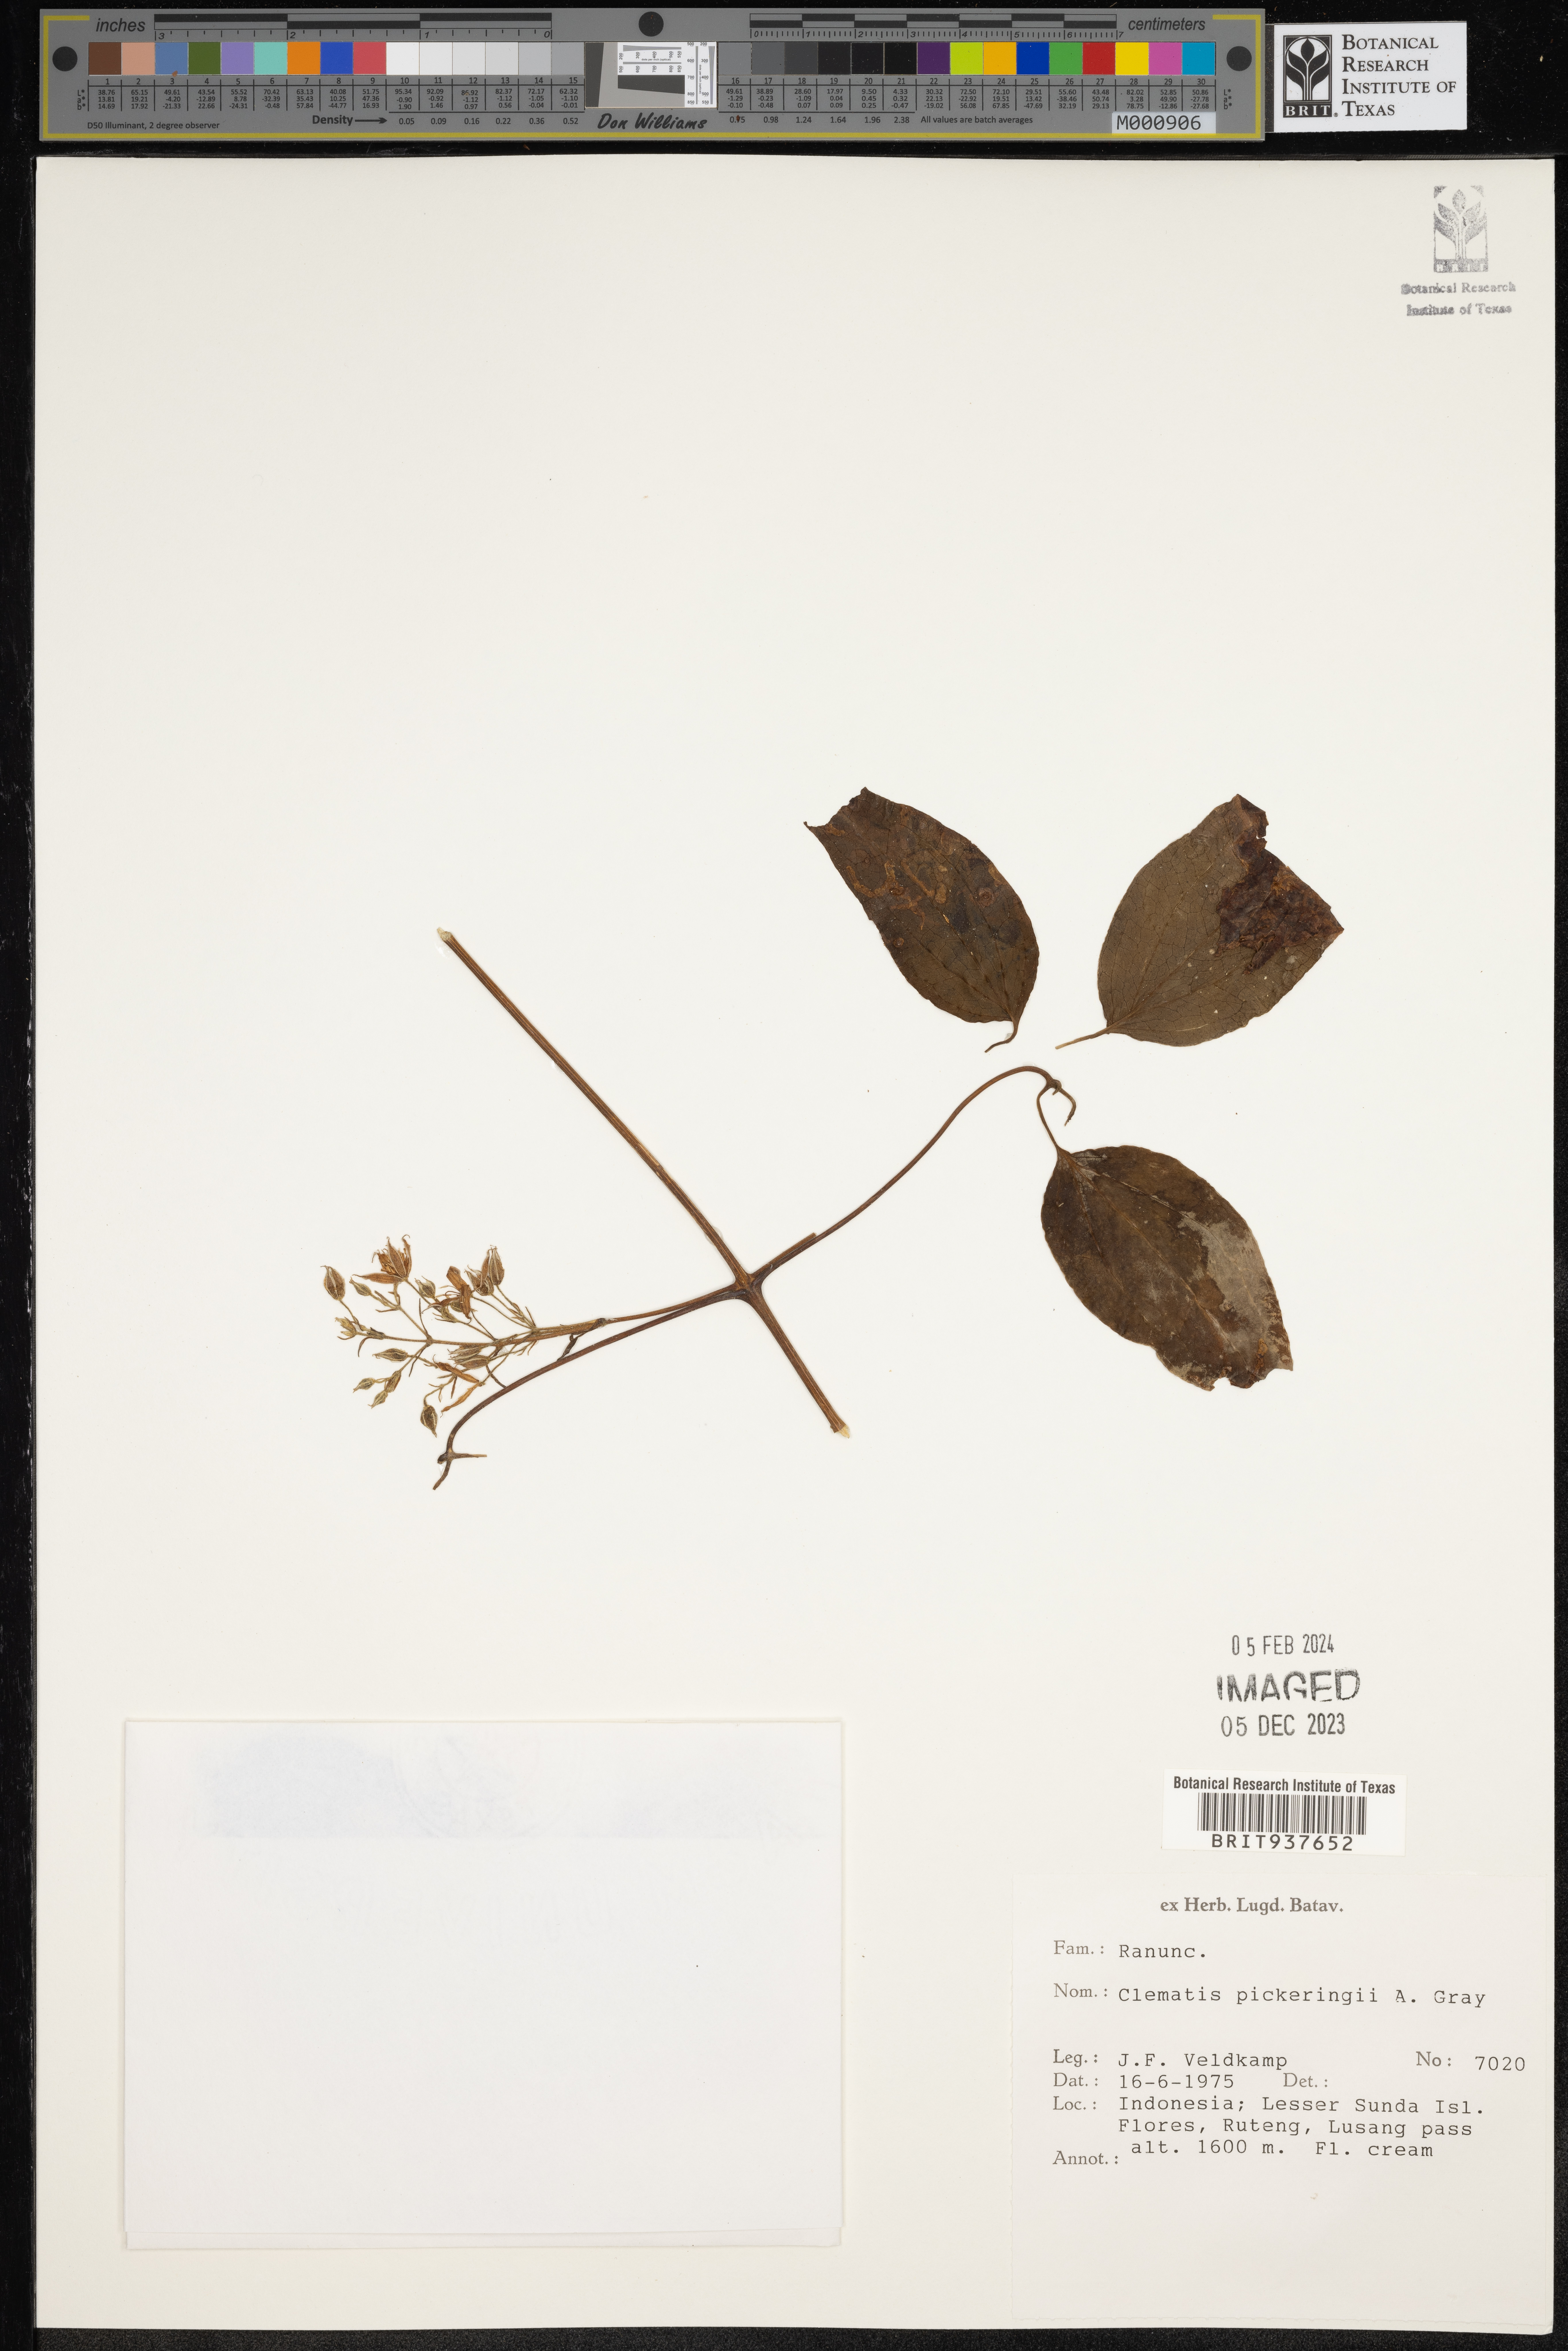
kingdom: Plantae
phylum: Tracheophyta
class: Magnoliopsida
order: Ranunculales
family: Ranunculaceae
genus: Clematis
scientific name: Clematis
